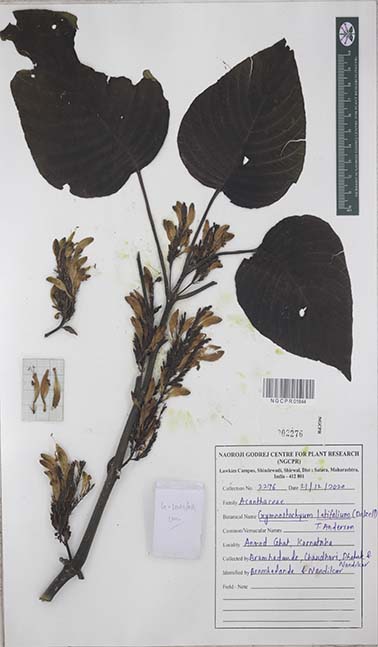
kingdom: Plantae
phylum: Tracheophyta
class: Magnoliopsida
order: Lamiales
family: Acanthaceae
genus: Gymnostachyum
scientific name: Gymnostachyum latifolium
